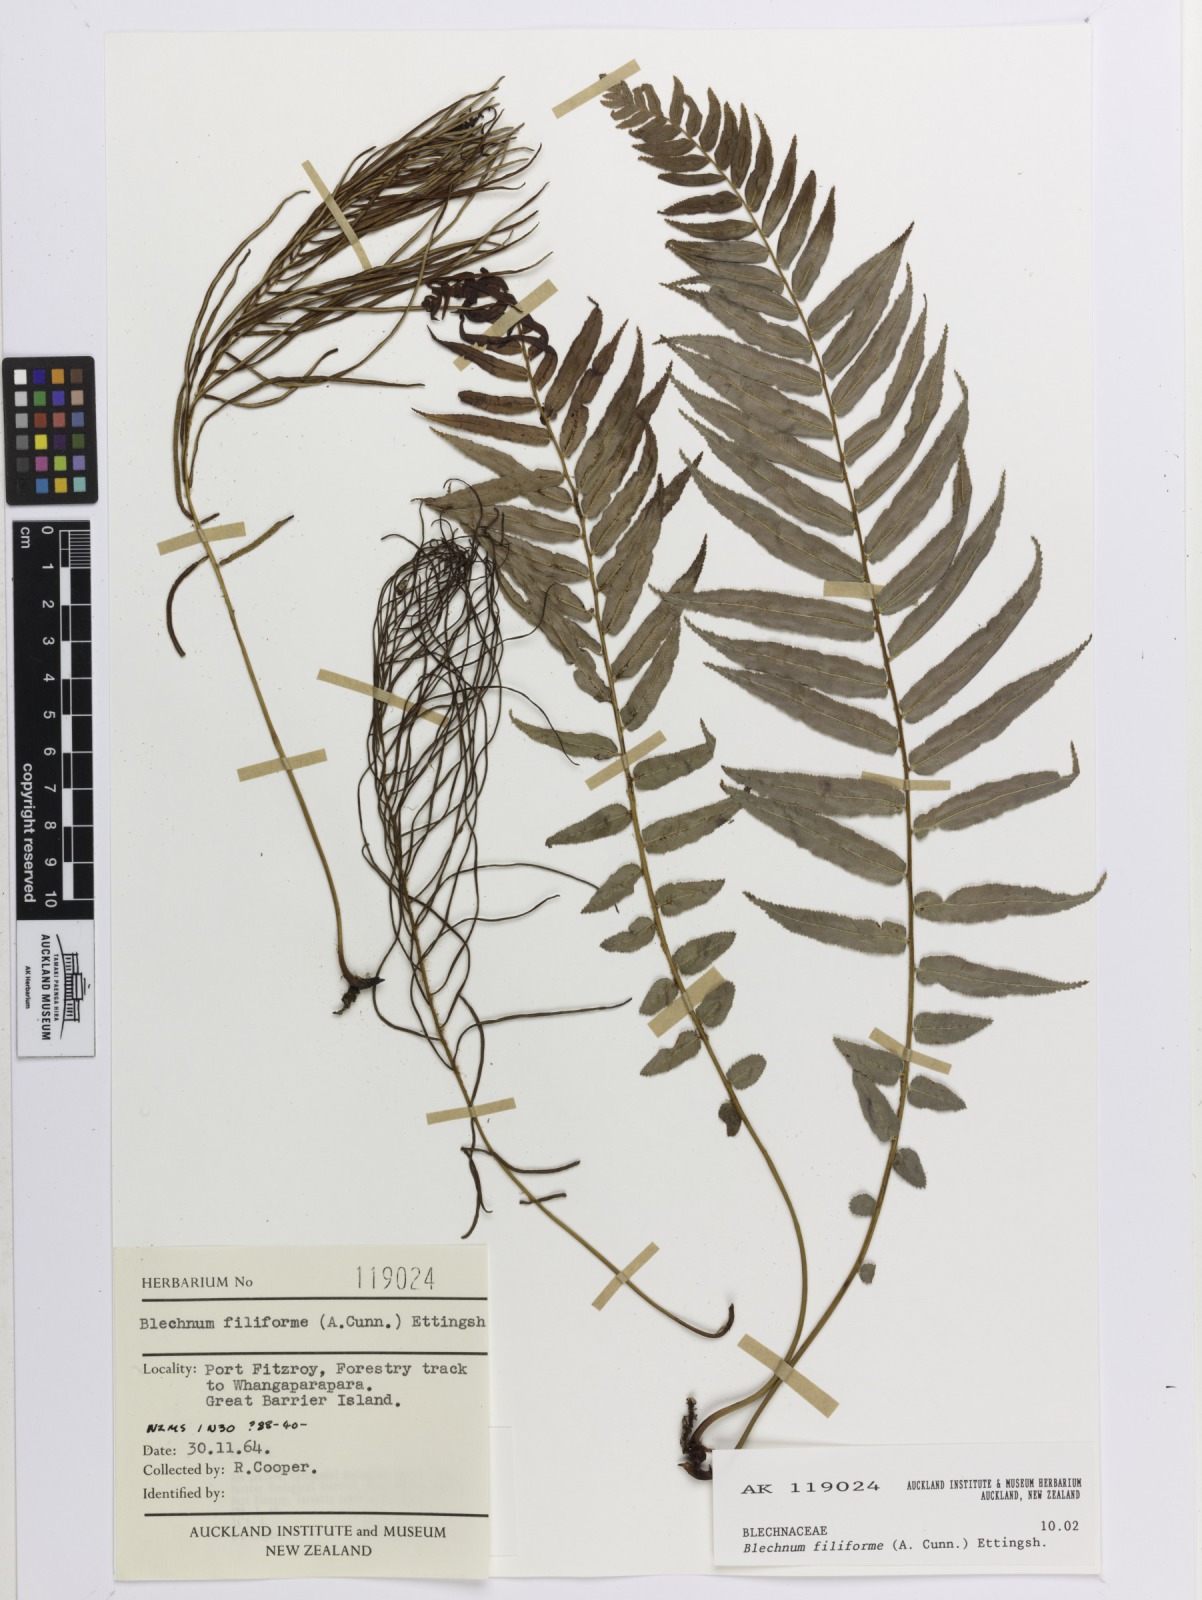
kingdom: Plantae
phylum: Tracheophyta
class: Polypodiopsida
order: Polypodiales
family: Blechnaceae
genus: Icarus
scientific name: Icarus filiformis
